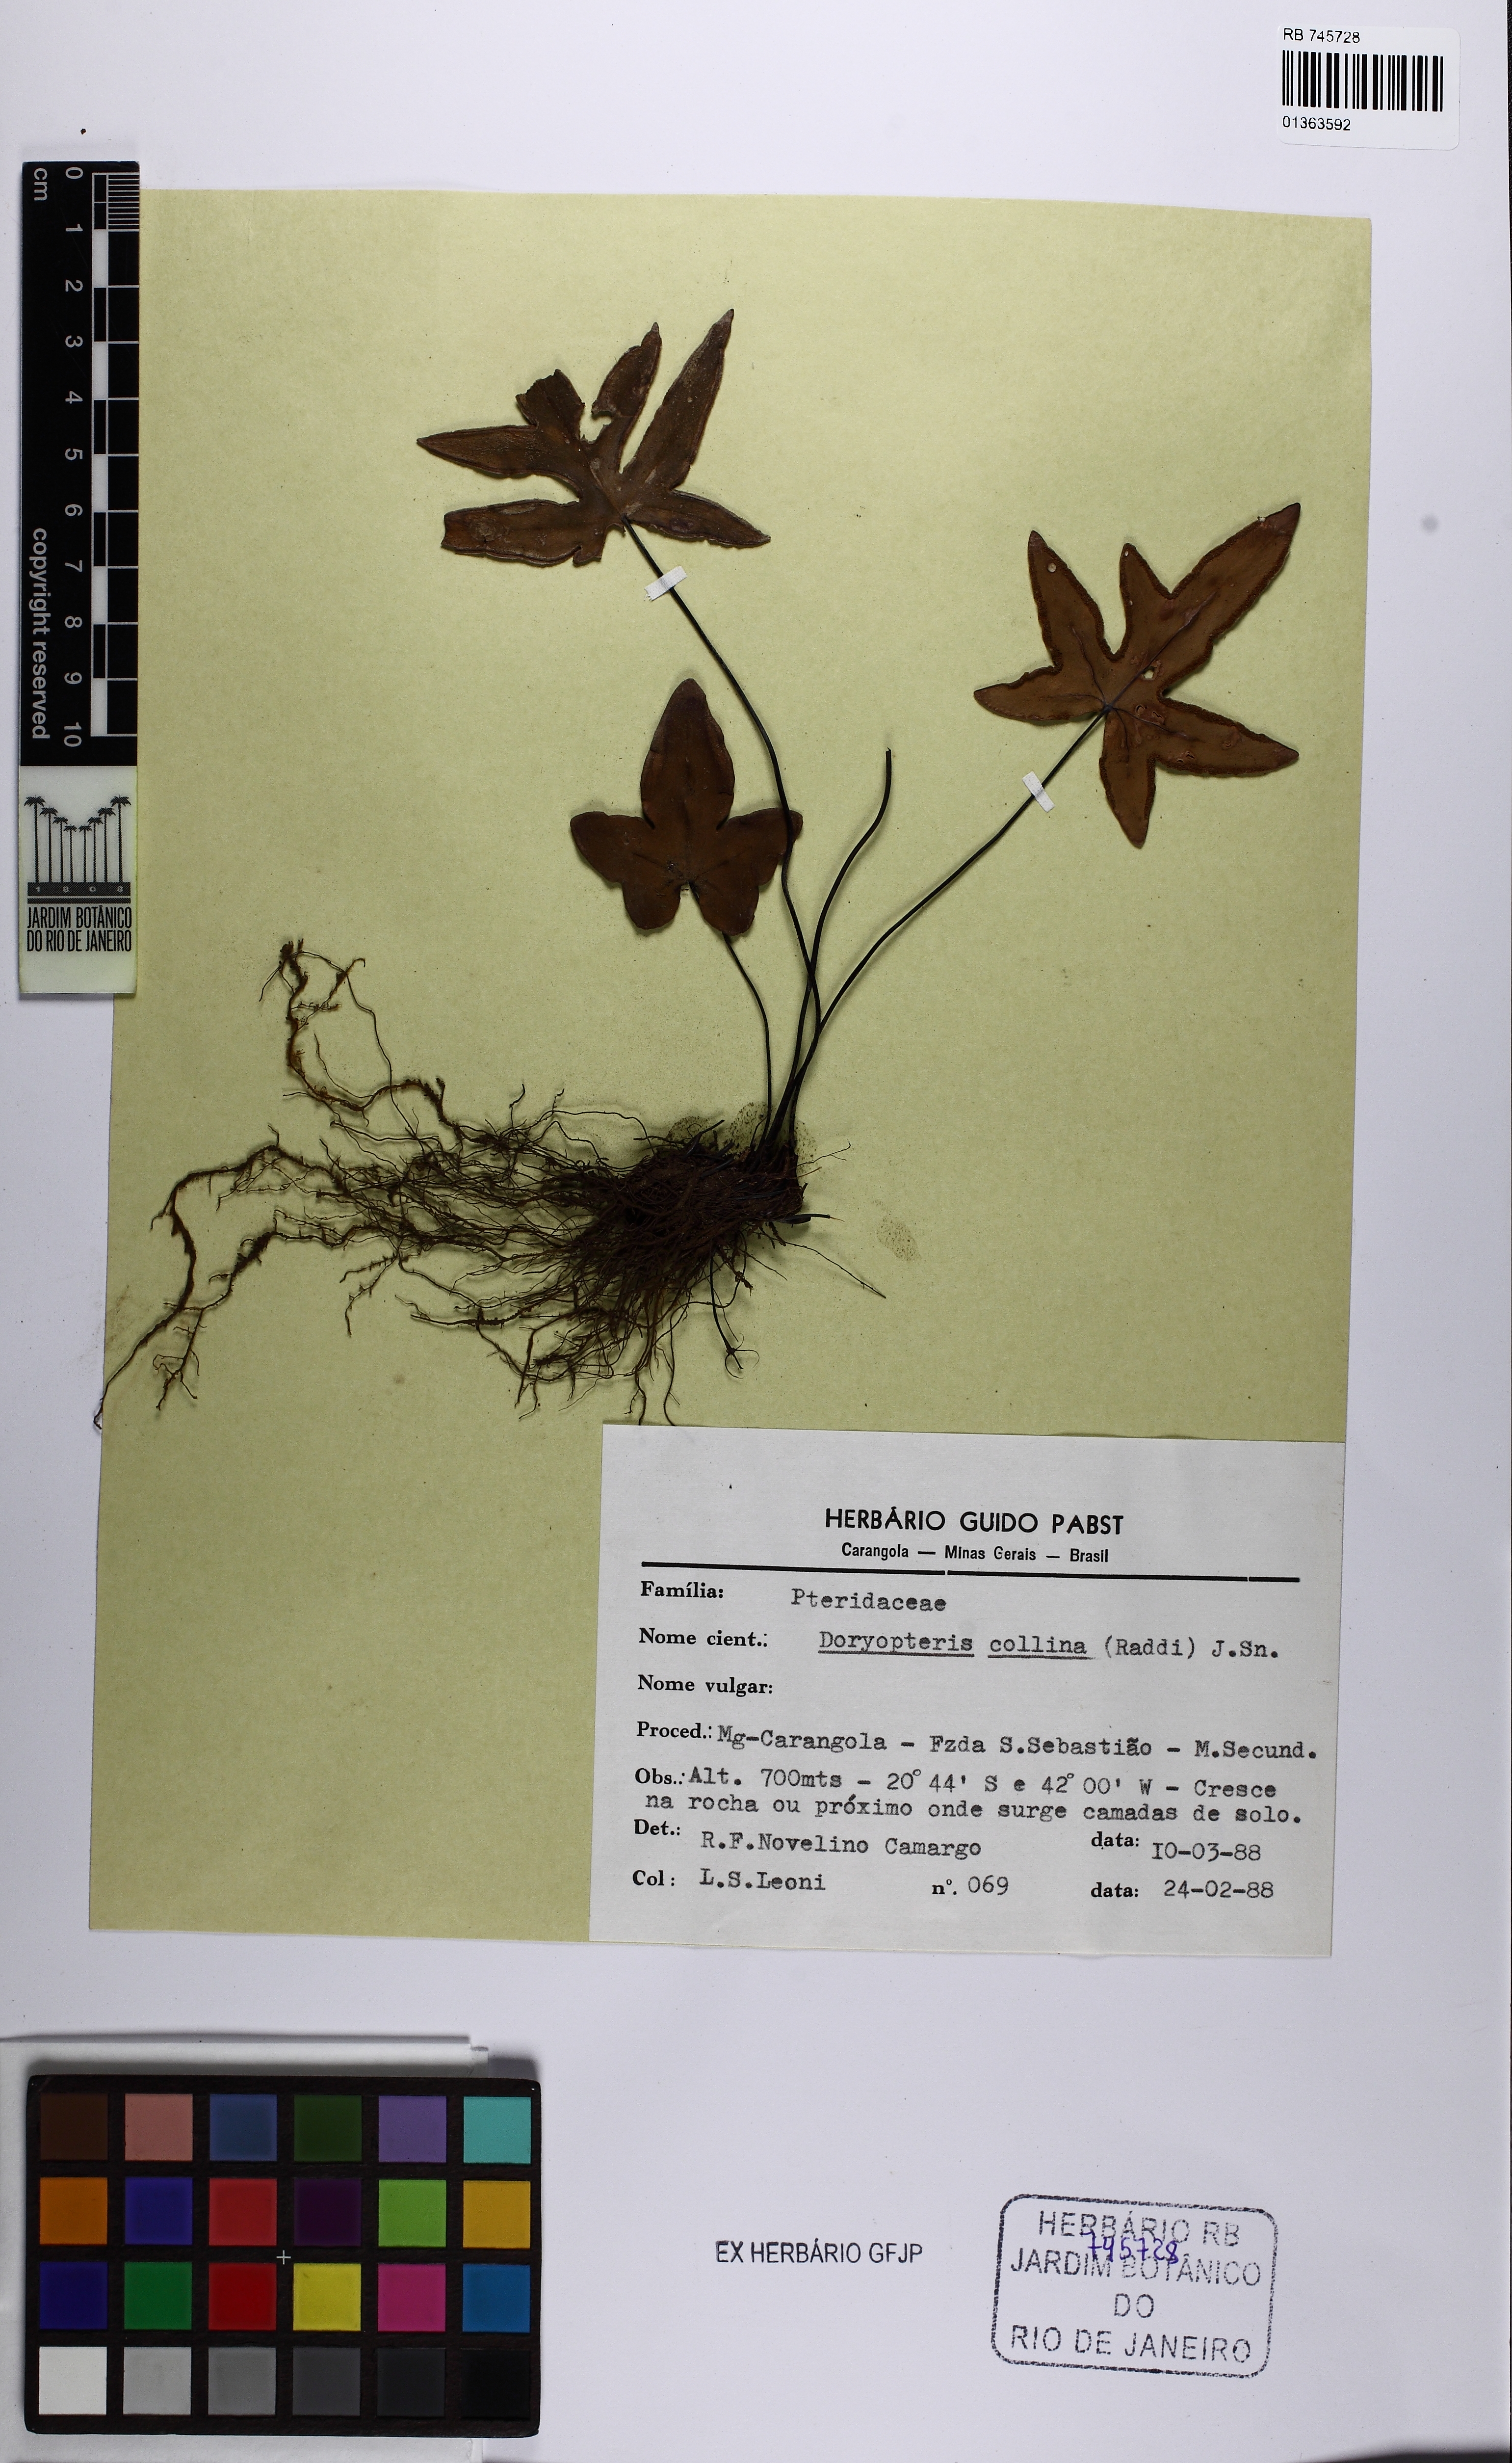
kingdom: Plantae
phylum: Tracheophyta
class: Polypodiopsida
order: Polypodiales
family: Pteridaceae
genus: Doryopteris
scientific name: Doryopteris varians
